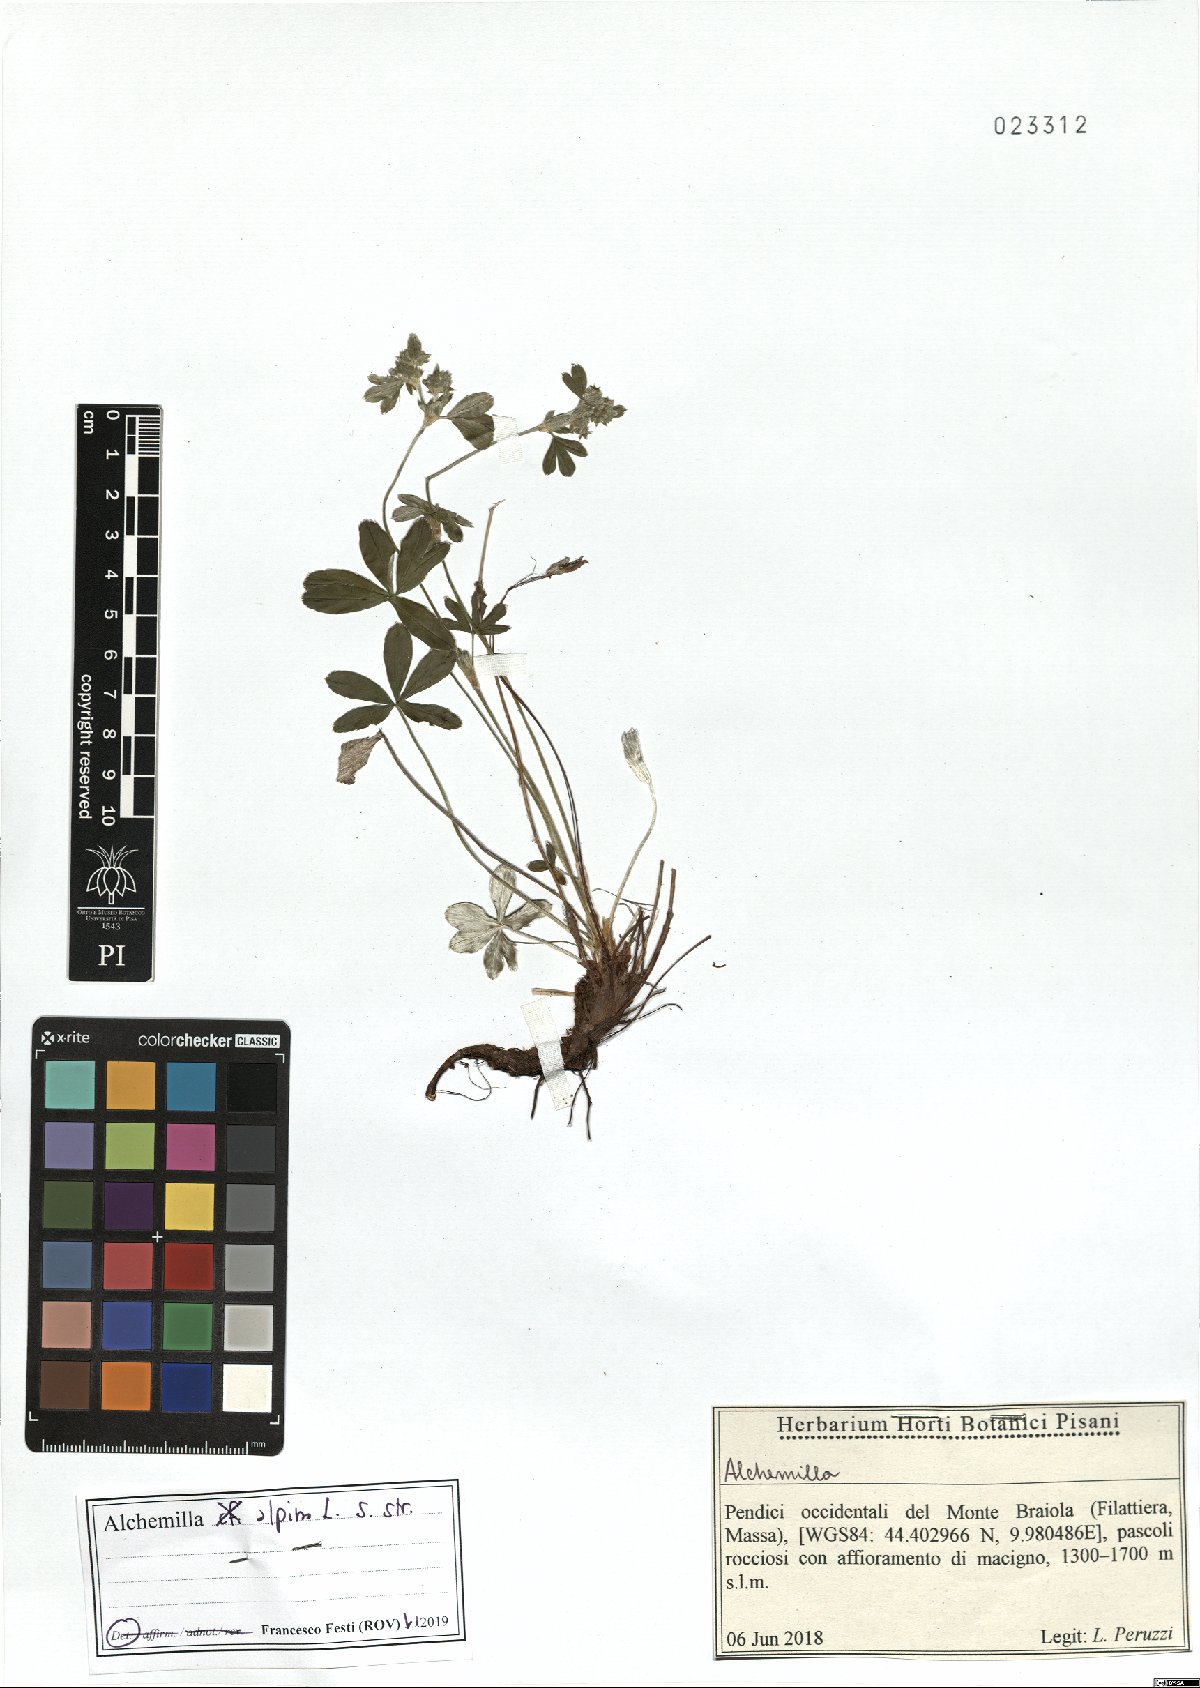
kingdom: Plantae
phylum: Tracheophyta
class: Magnoliopsida
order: Rosales
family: Rosaceae
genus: Alchemilla
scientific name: Alchemilla alpina
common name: Alpine lady's-mantle
